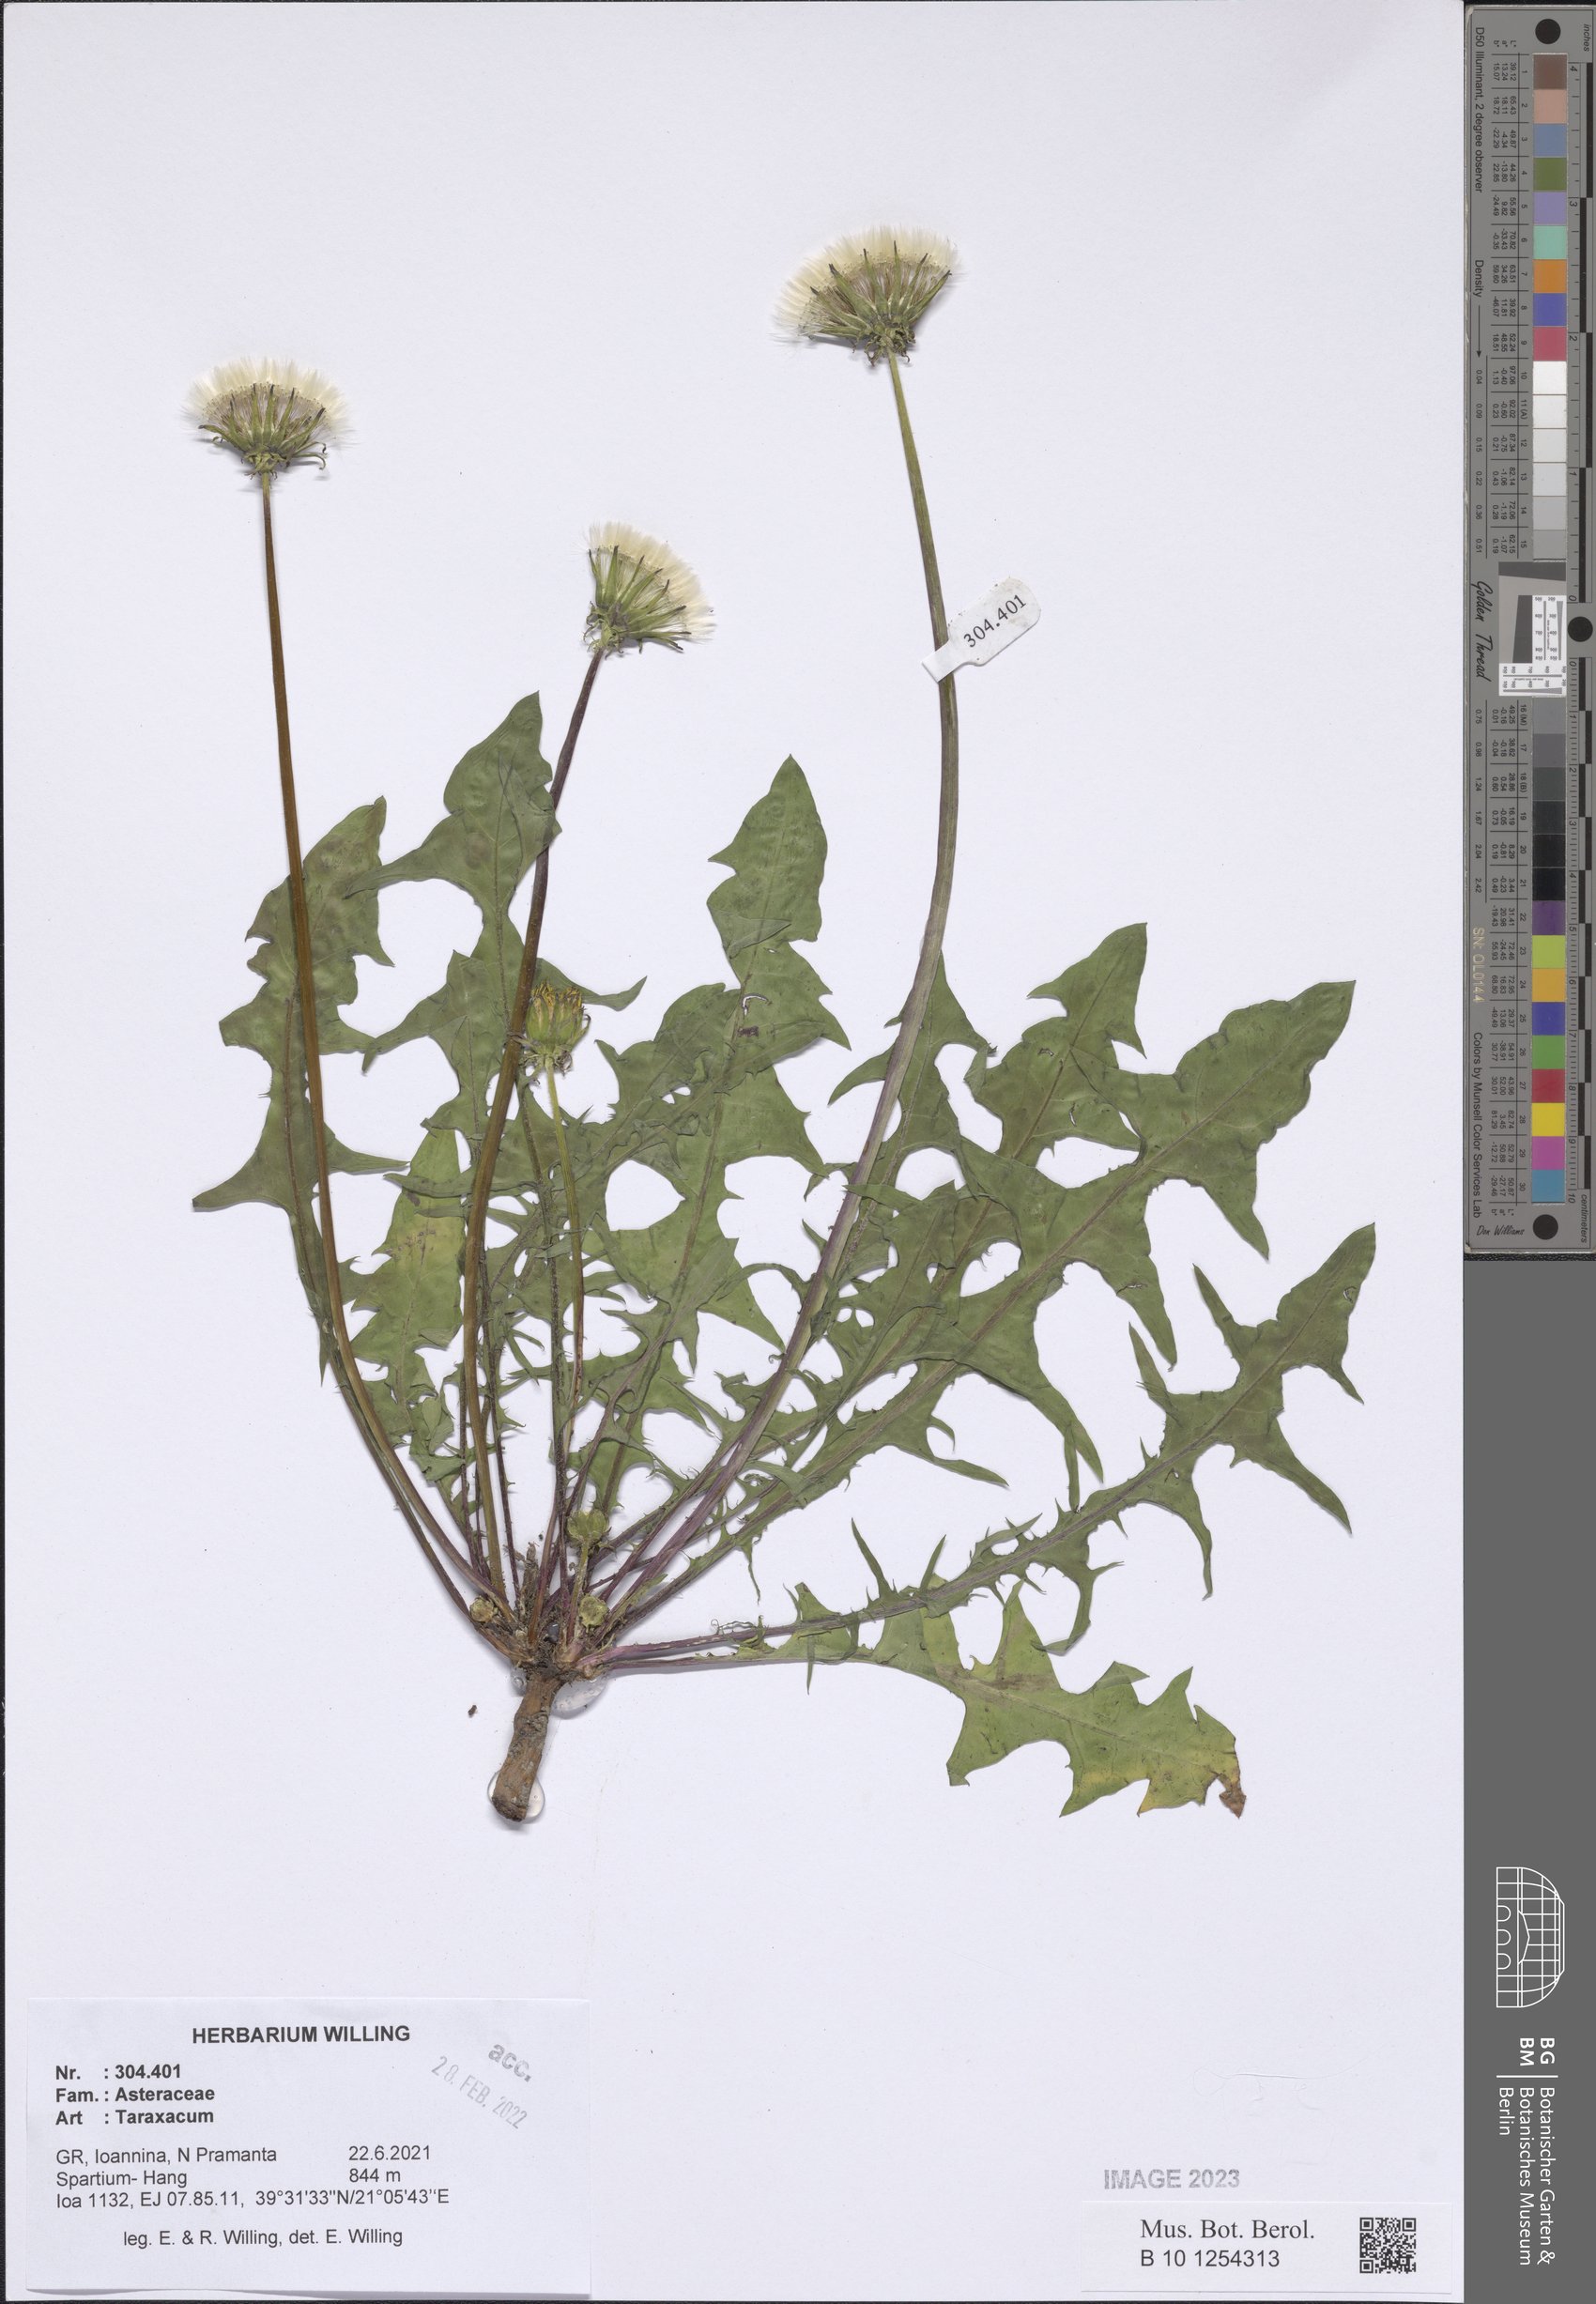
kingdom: Plantae
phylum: Tracheophyta
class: Magnoliopsida
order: Asterales
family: Asteraceae
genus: Taraxacum
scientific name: Taraxacum
